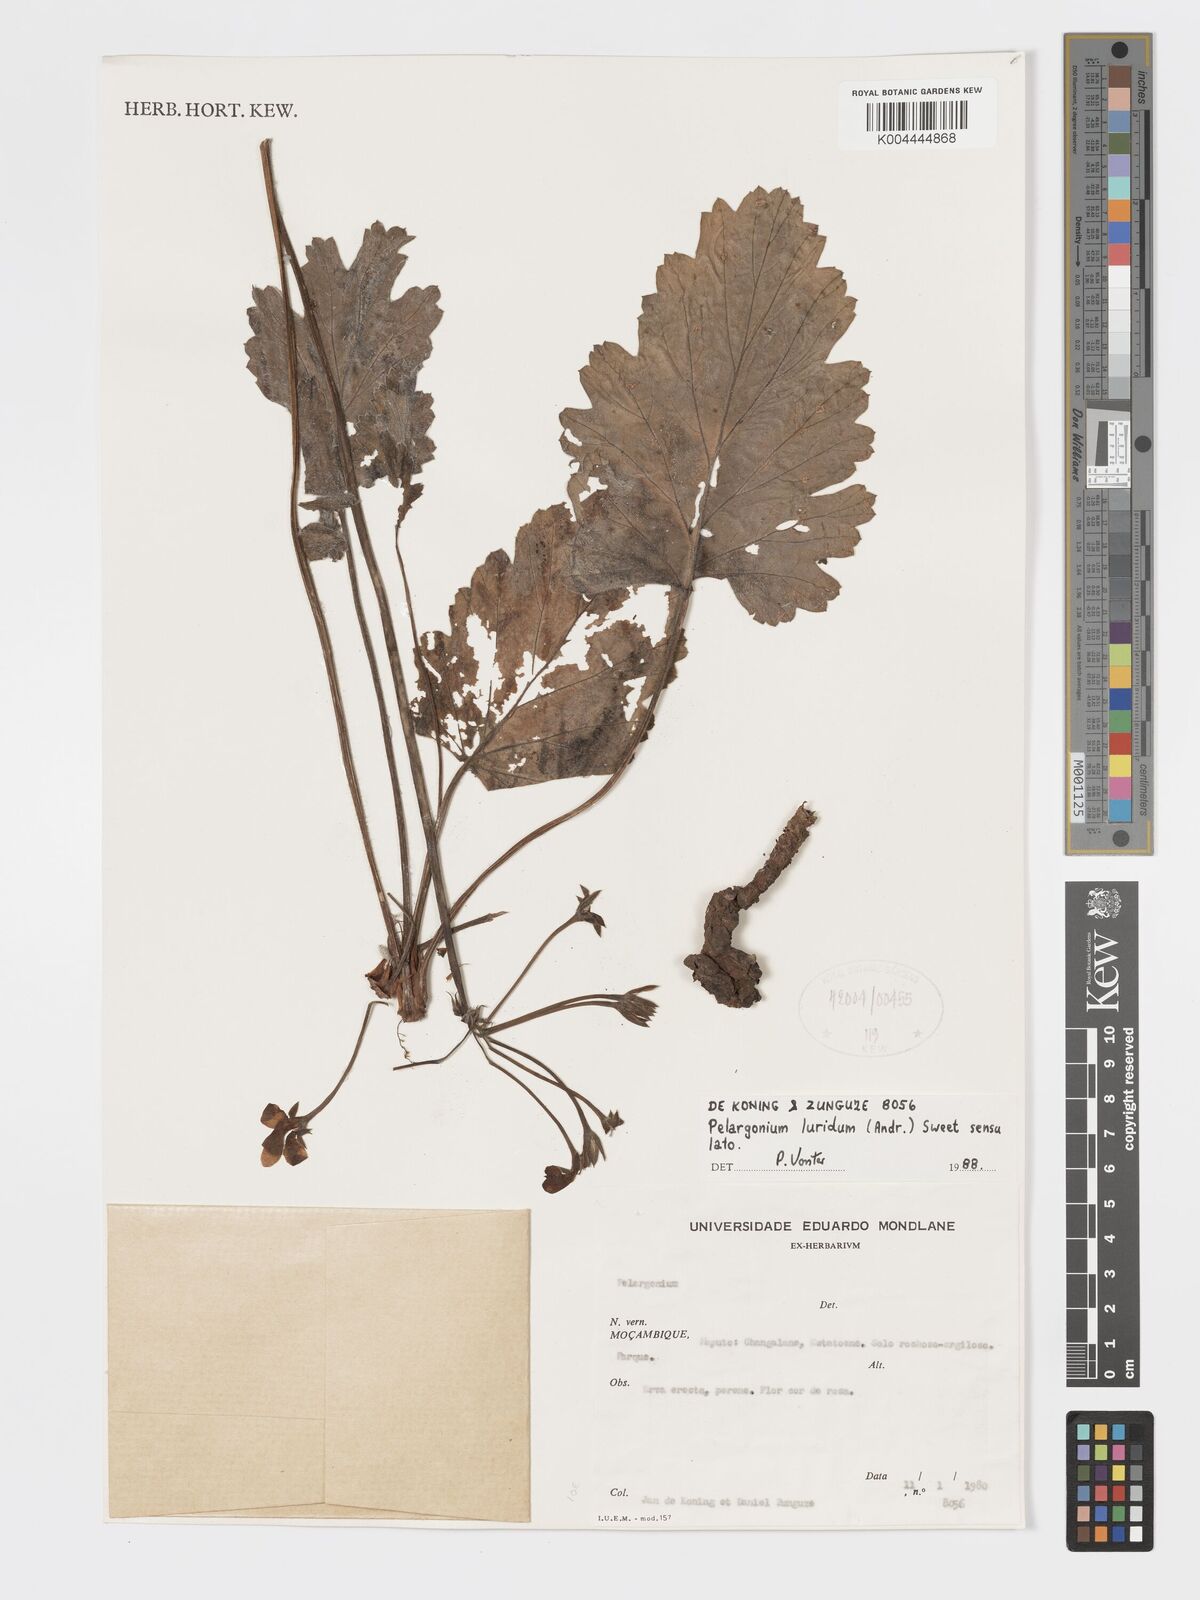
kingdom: Plantae
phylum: Tracheophyta
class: Magnoliopsida
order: Geraniales
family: Geraniaceae
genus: Pelargonium
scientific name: Pelargonium luridum
